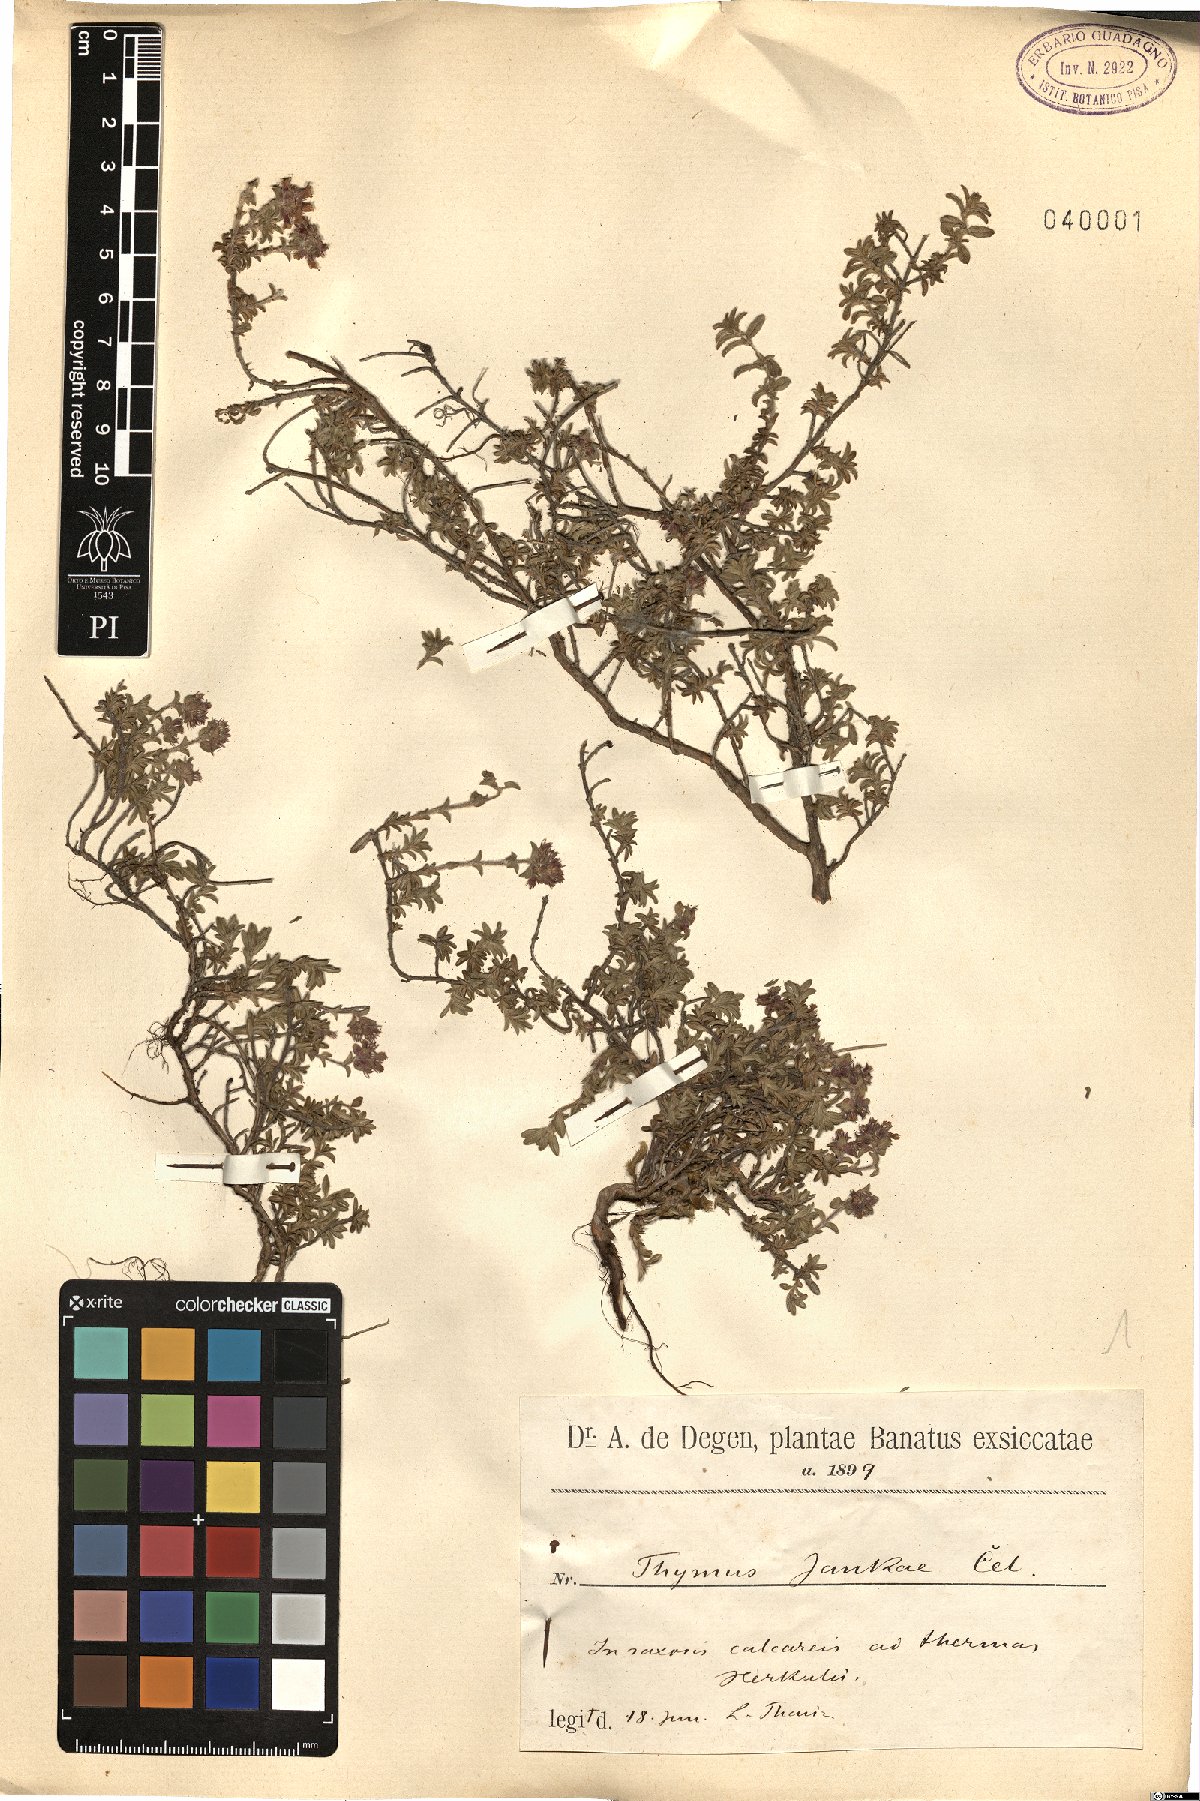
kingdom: Plantae
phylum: Tracheophyta
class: Magnoliopsida
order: Lamiales
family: Lamiaceae
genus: Thymus
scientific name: Thymus jankae
